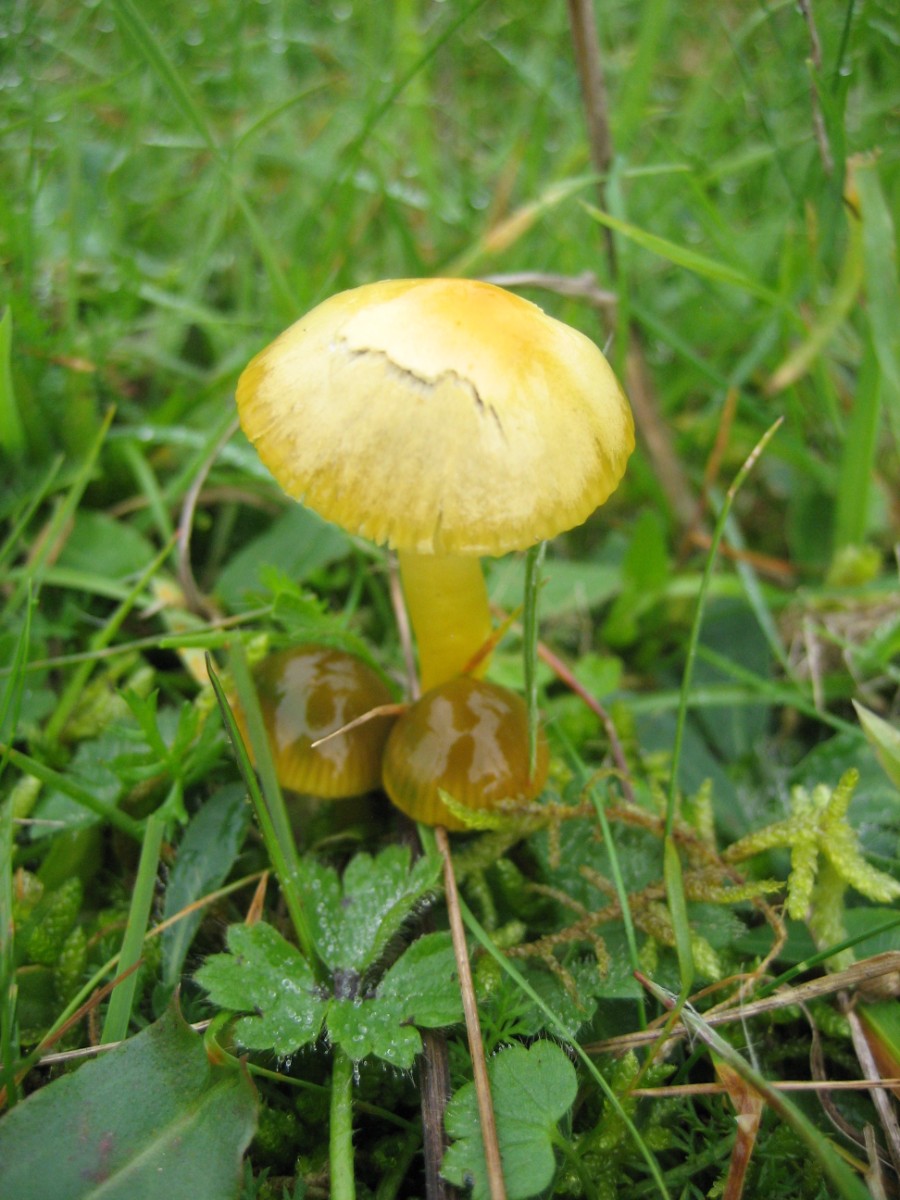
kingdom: Fungi
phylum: Basidiomycota
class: Agaricomycetes
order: Agaricales
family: Hygrophoraceae
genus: Gliophorus
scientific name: Gliophorus psittacinus
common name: papegøje-vokshat
